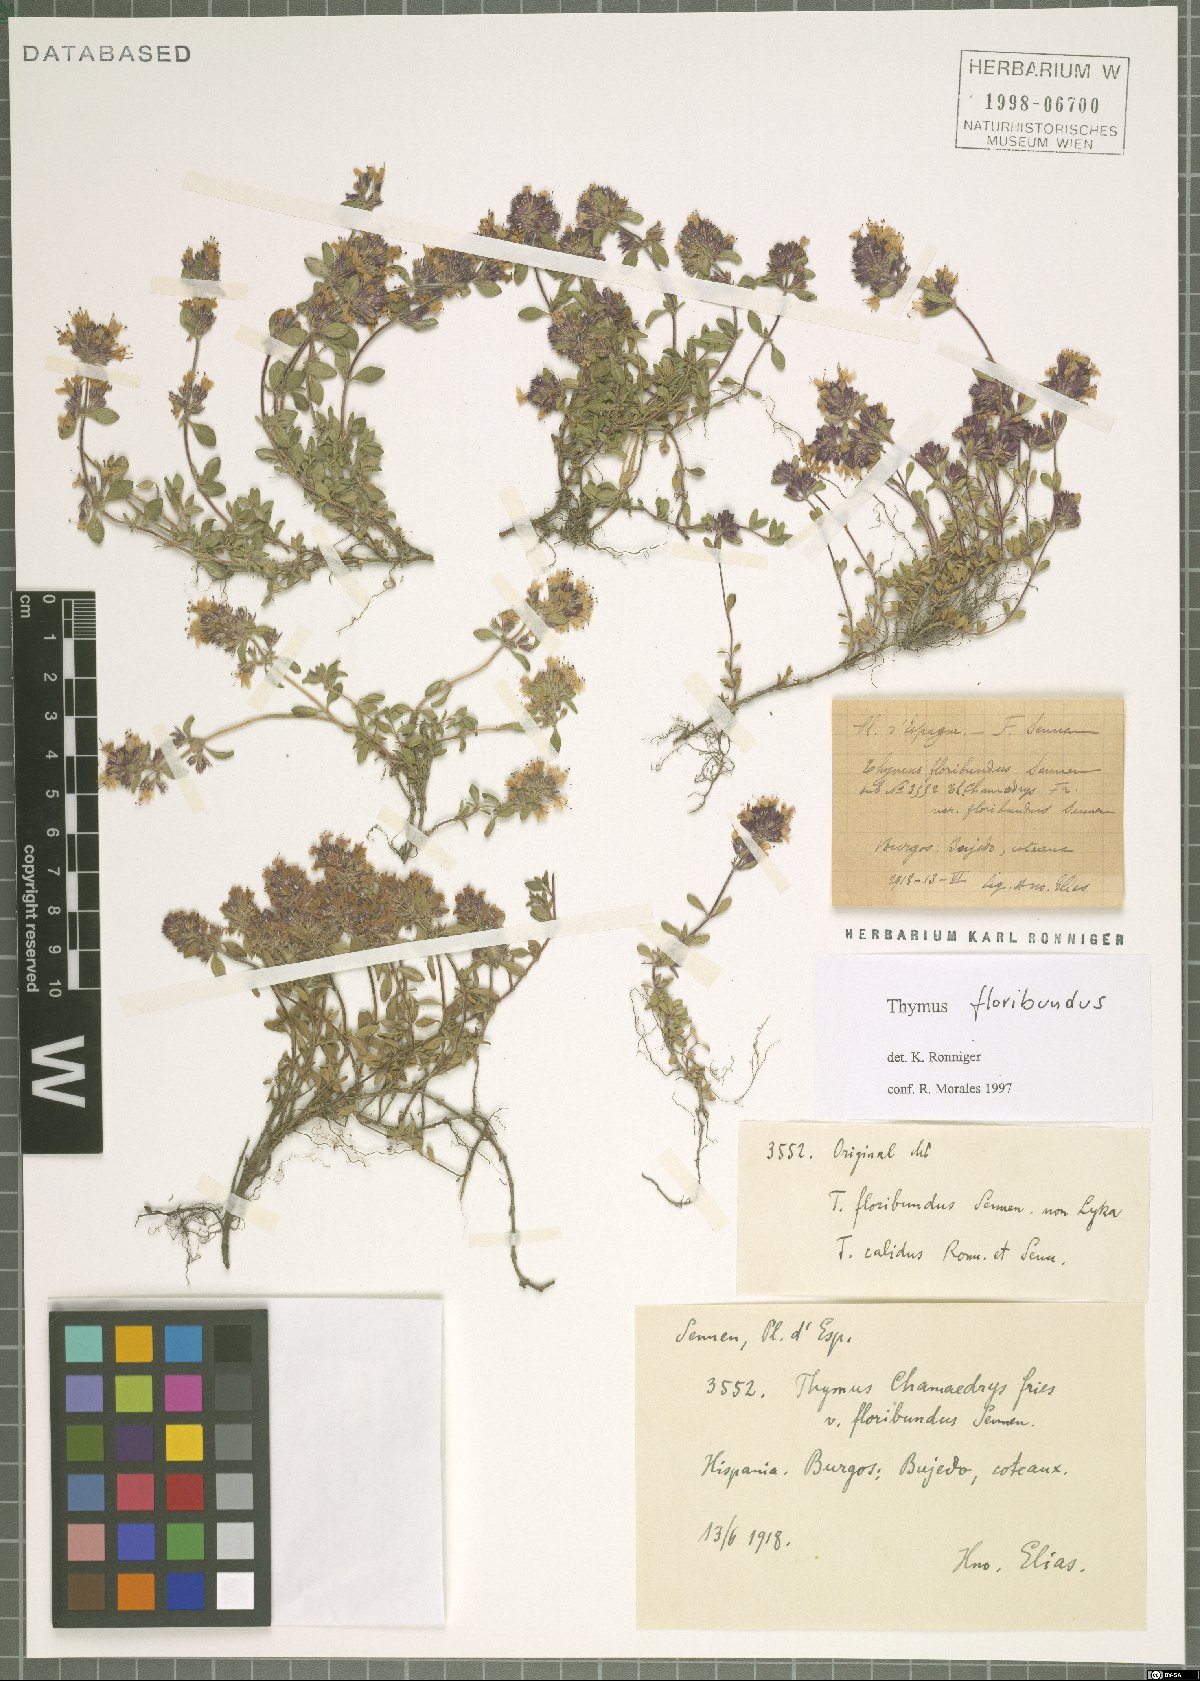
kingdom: Plantae
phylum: Tracheophyta
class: Magnoliopsida
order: Lamiales
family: Lamiaceae
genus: Thymus
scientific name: Thymus floribundus
